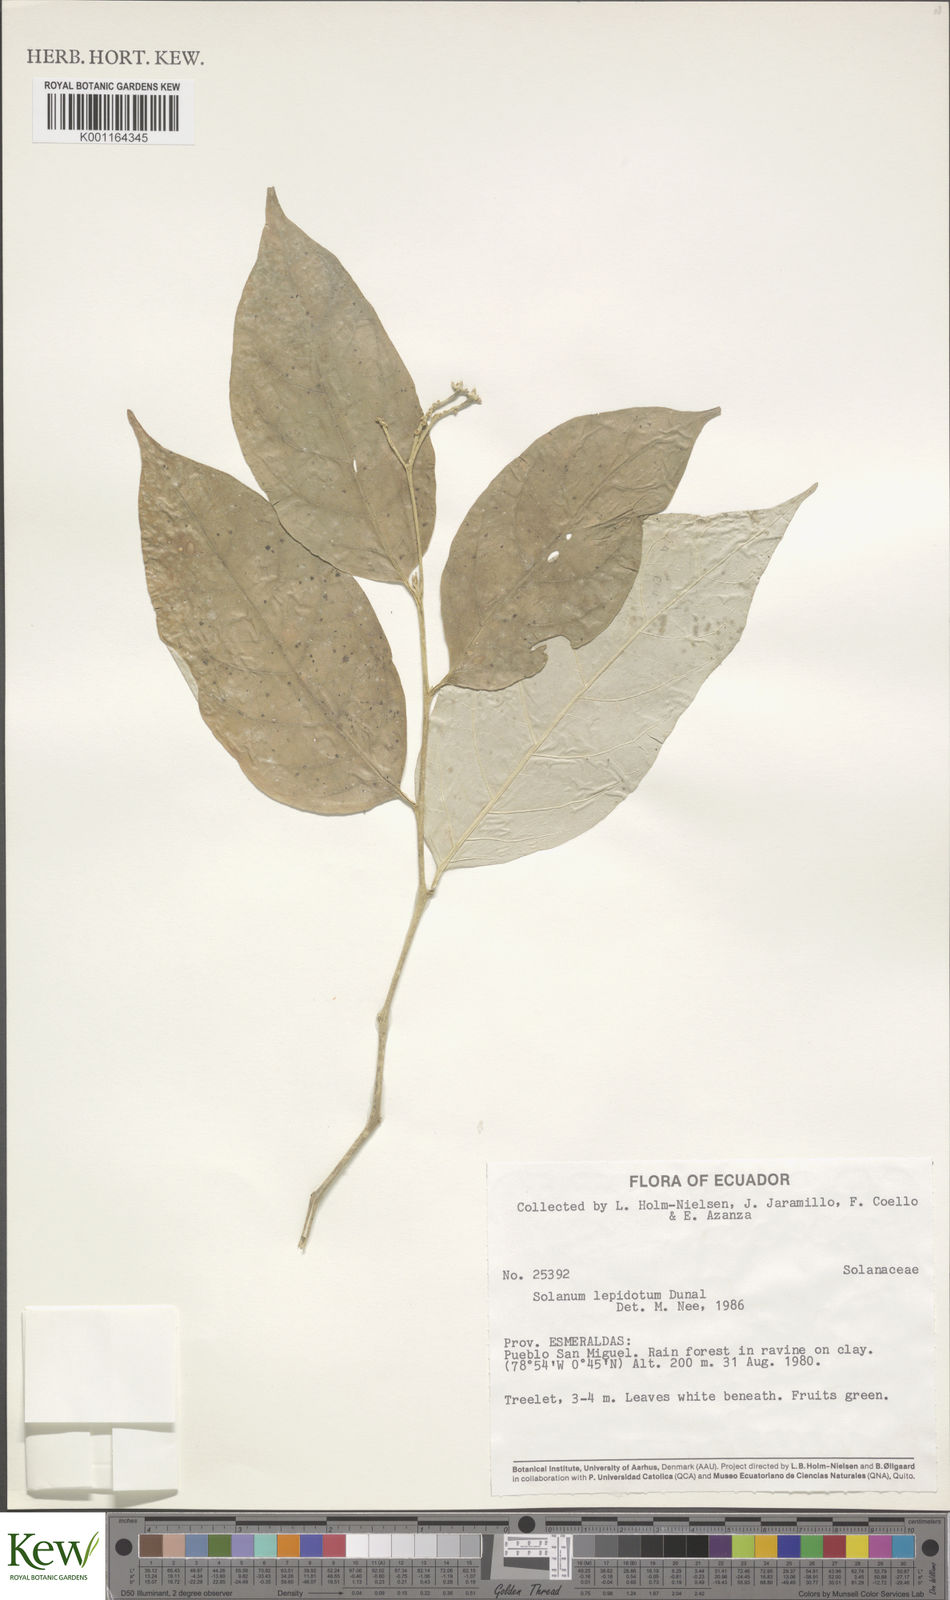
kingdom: Plantae
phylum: Tracheophyta
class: Magnoliopsida
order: Solanales
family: Solanaceae
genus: Solanum
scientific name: Solanum lepidotum
